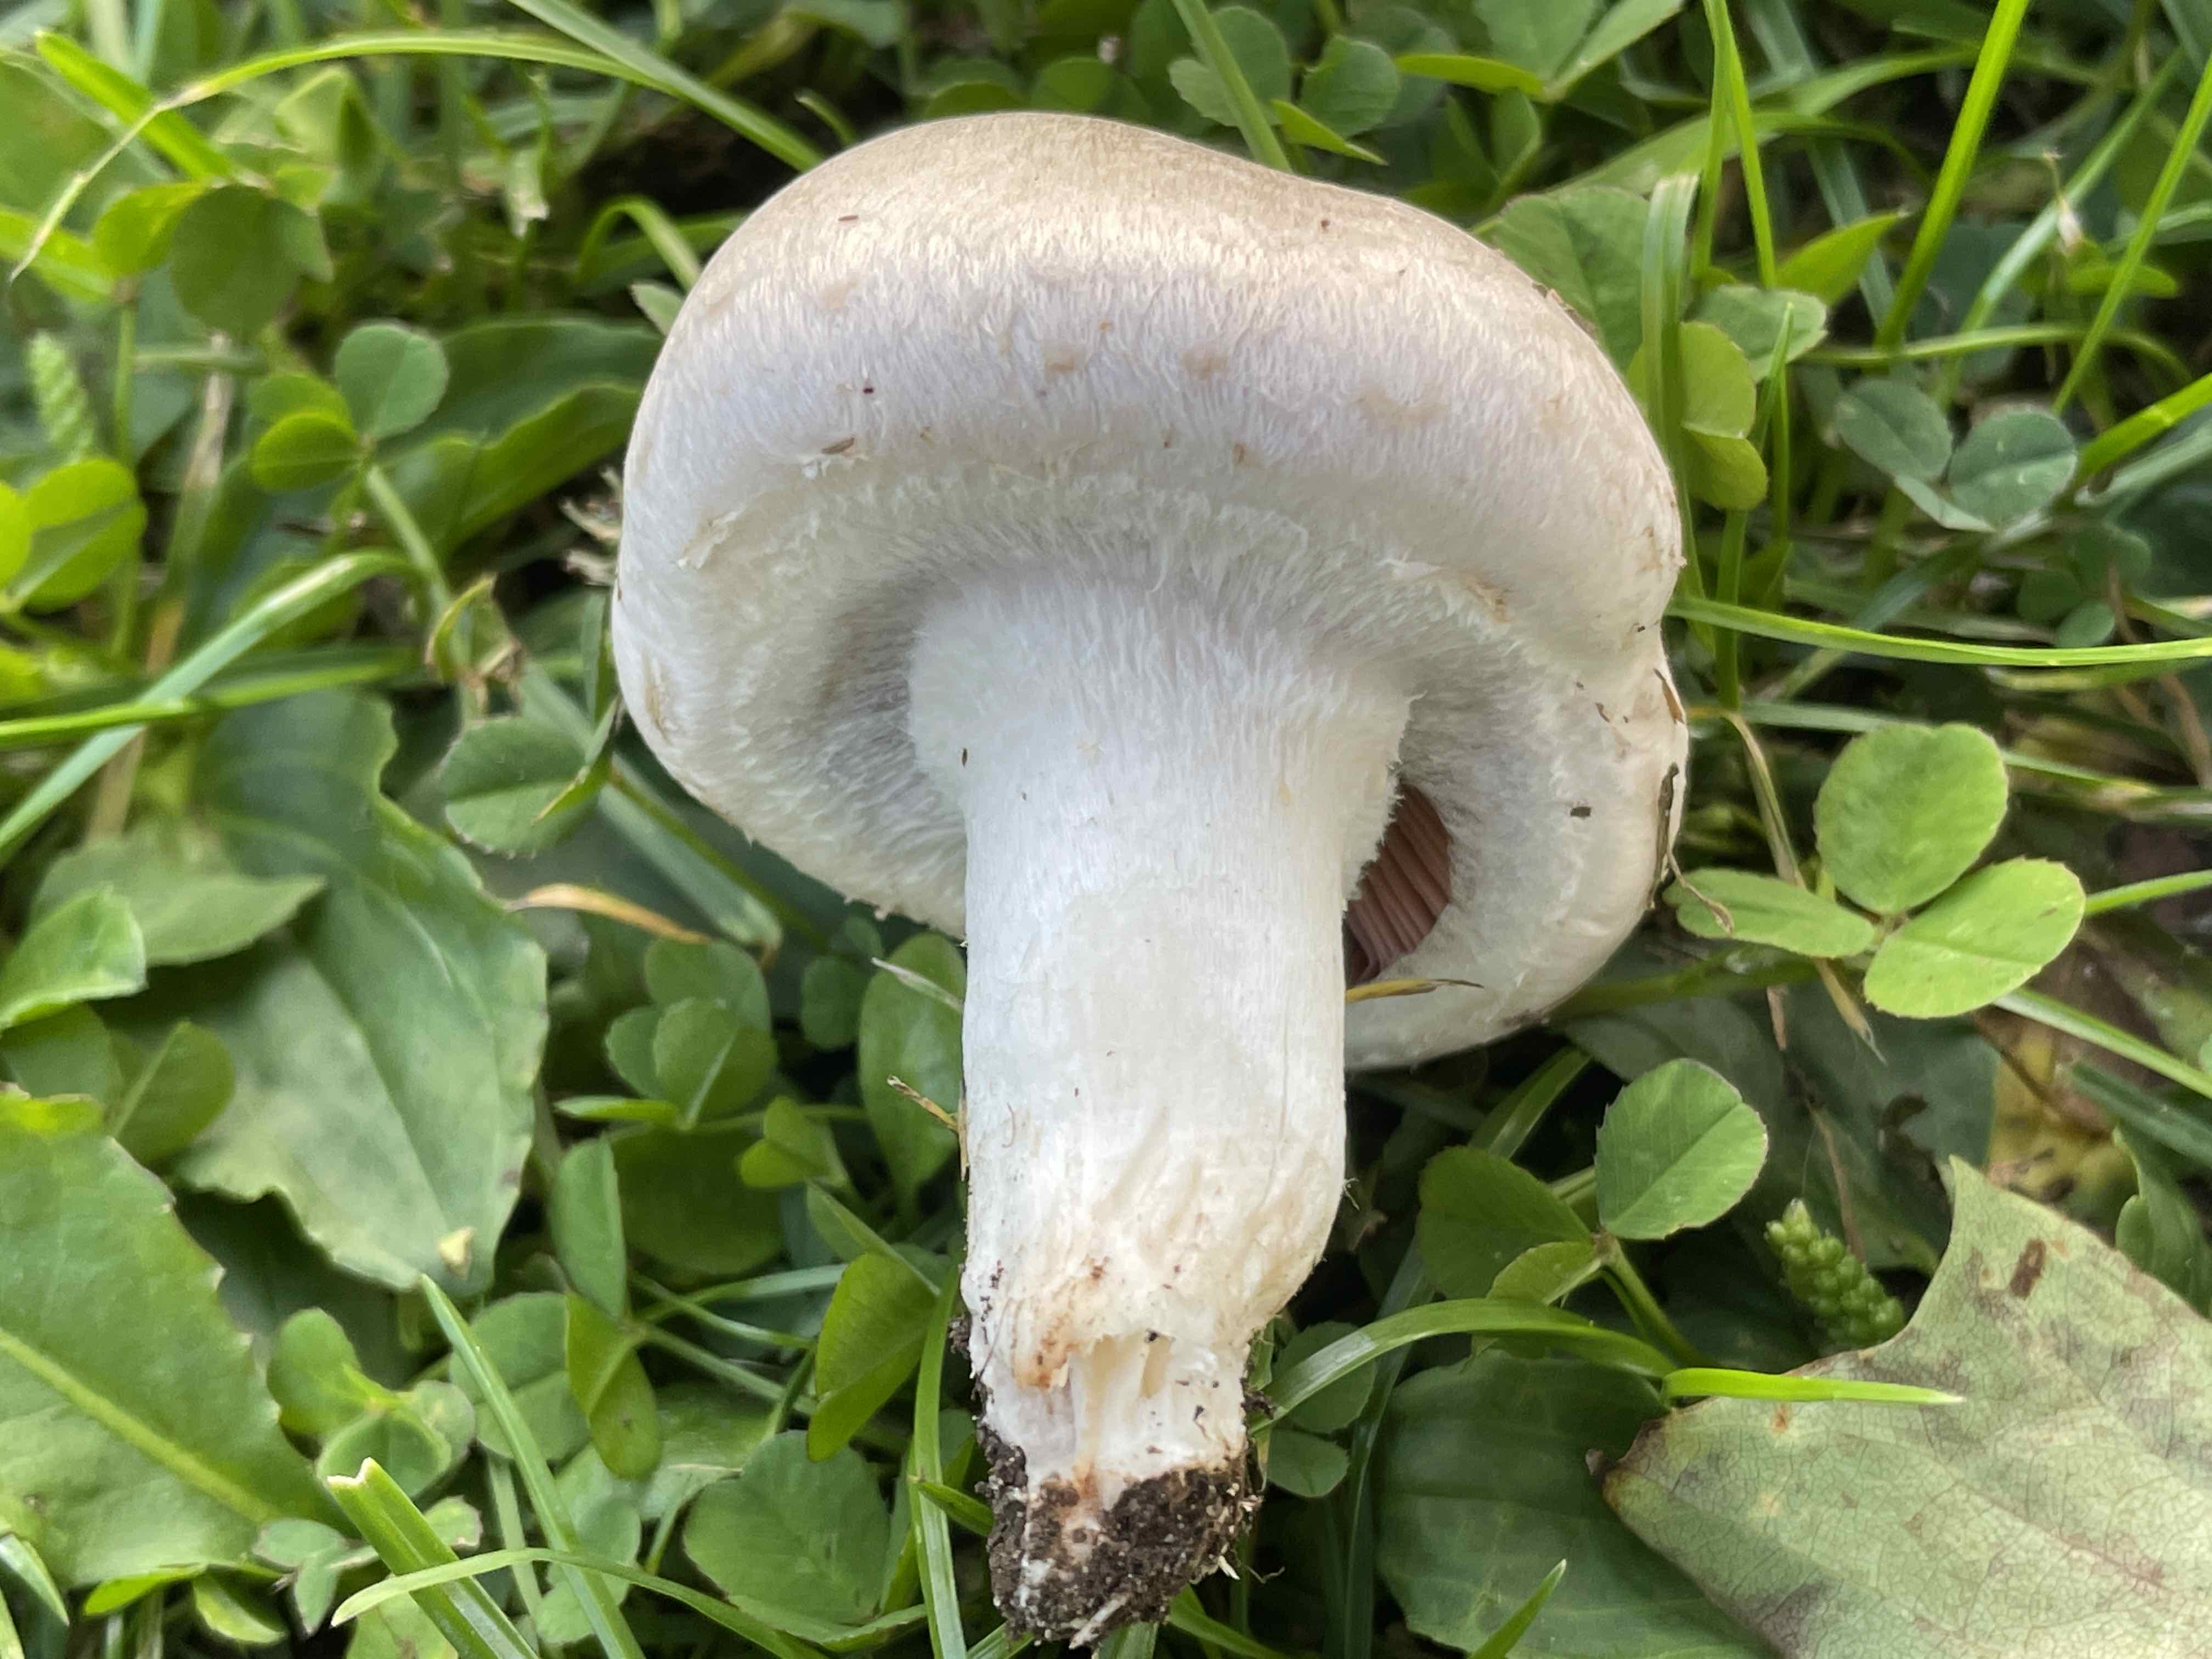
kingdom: Fungi
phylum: Basidiomycota
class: Agaricomycetes
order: Agaricales
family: Agaricaceae
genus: Agaricus
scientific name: Agaricus campestris
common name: mark-champignon
